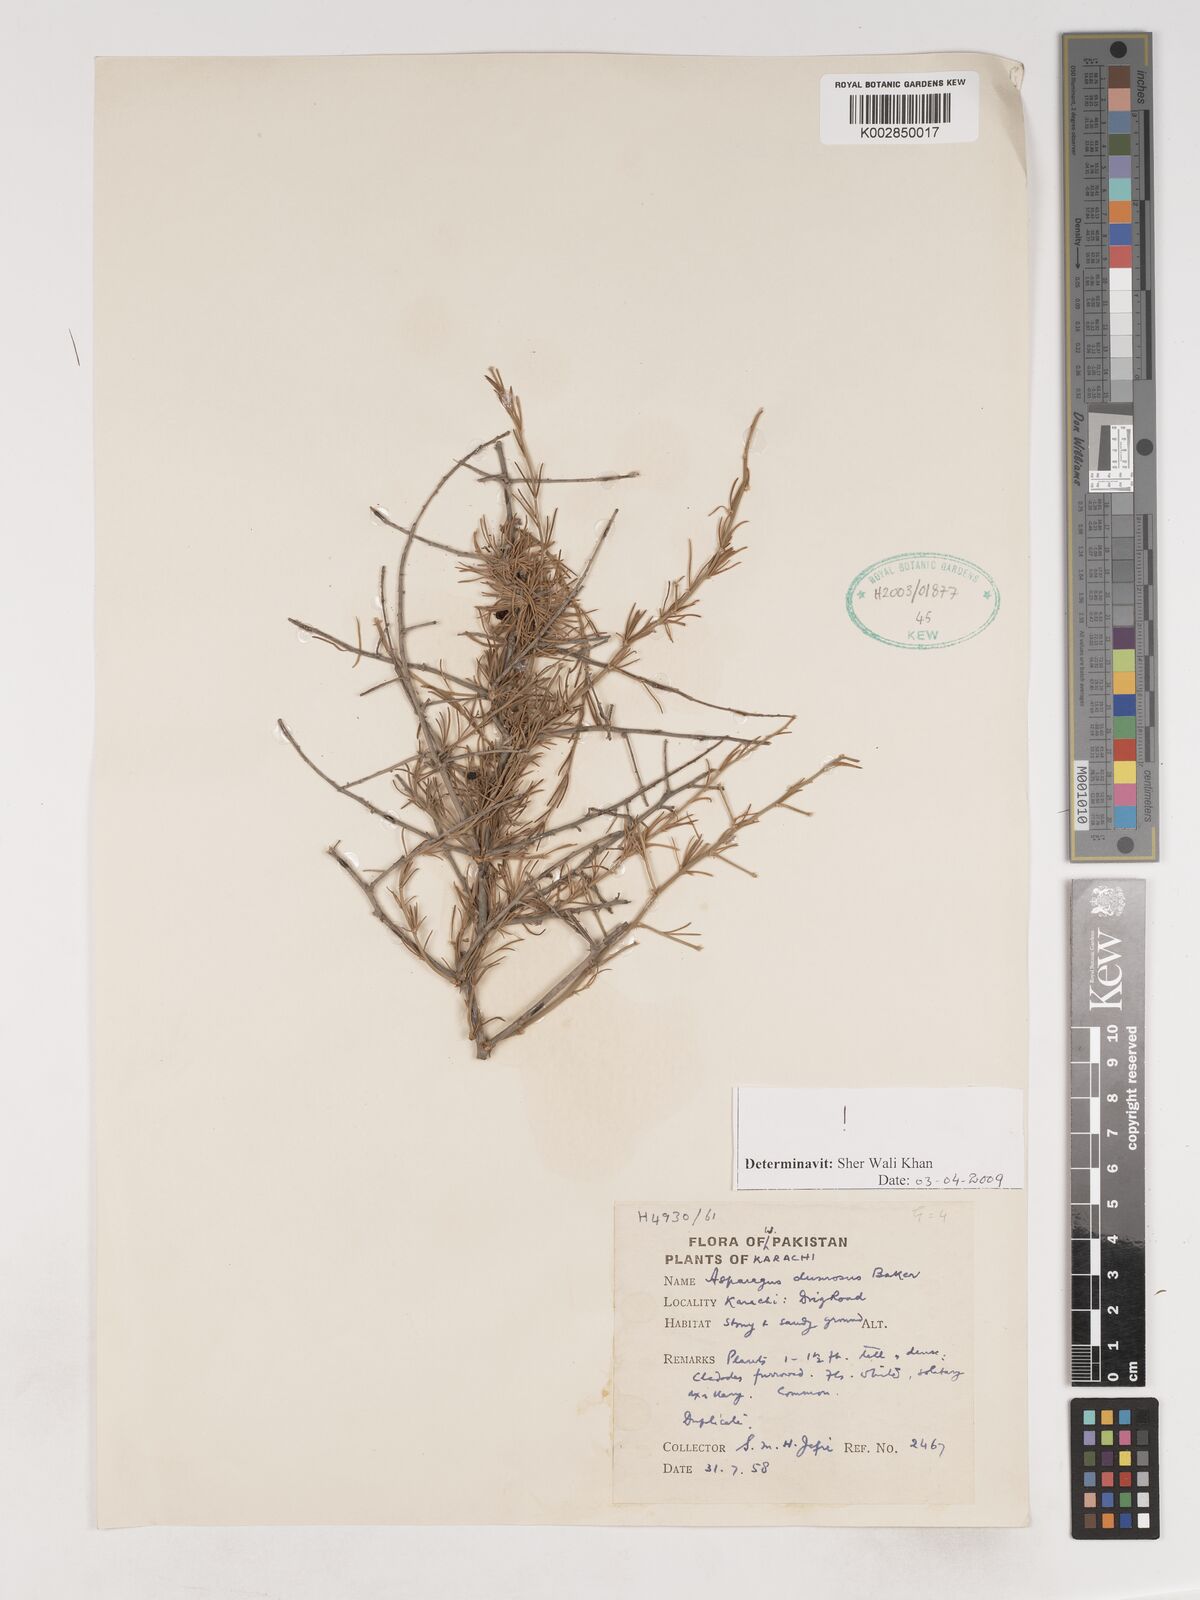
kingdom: Plantae
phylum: Tracheophyta
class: Liliopsida
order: Asparagales
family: Asparagaceae
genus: Asparagus
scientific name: Asparagus dumosus
